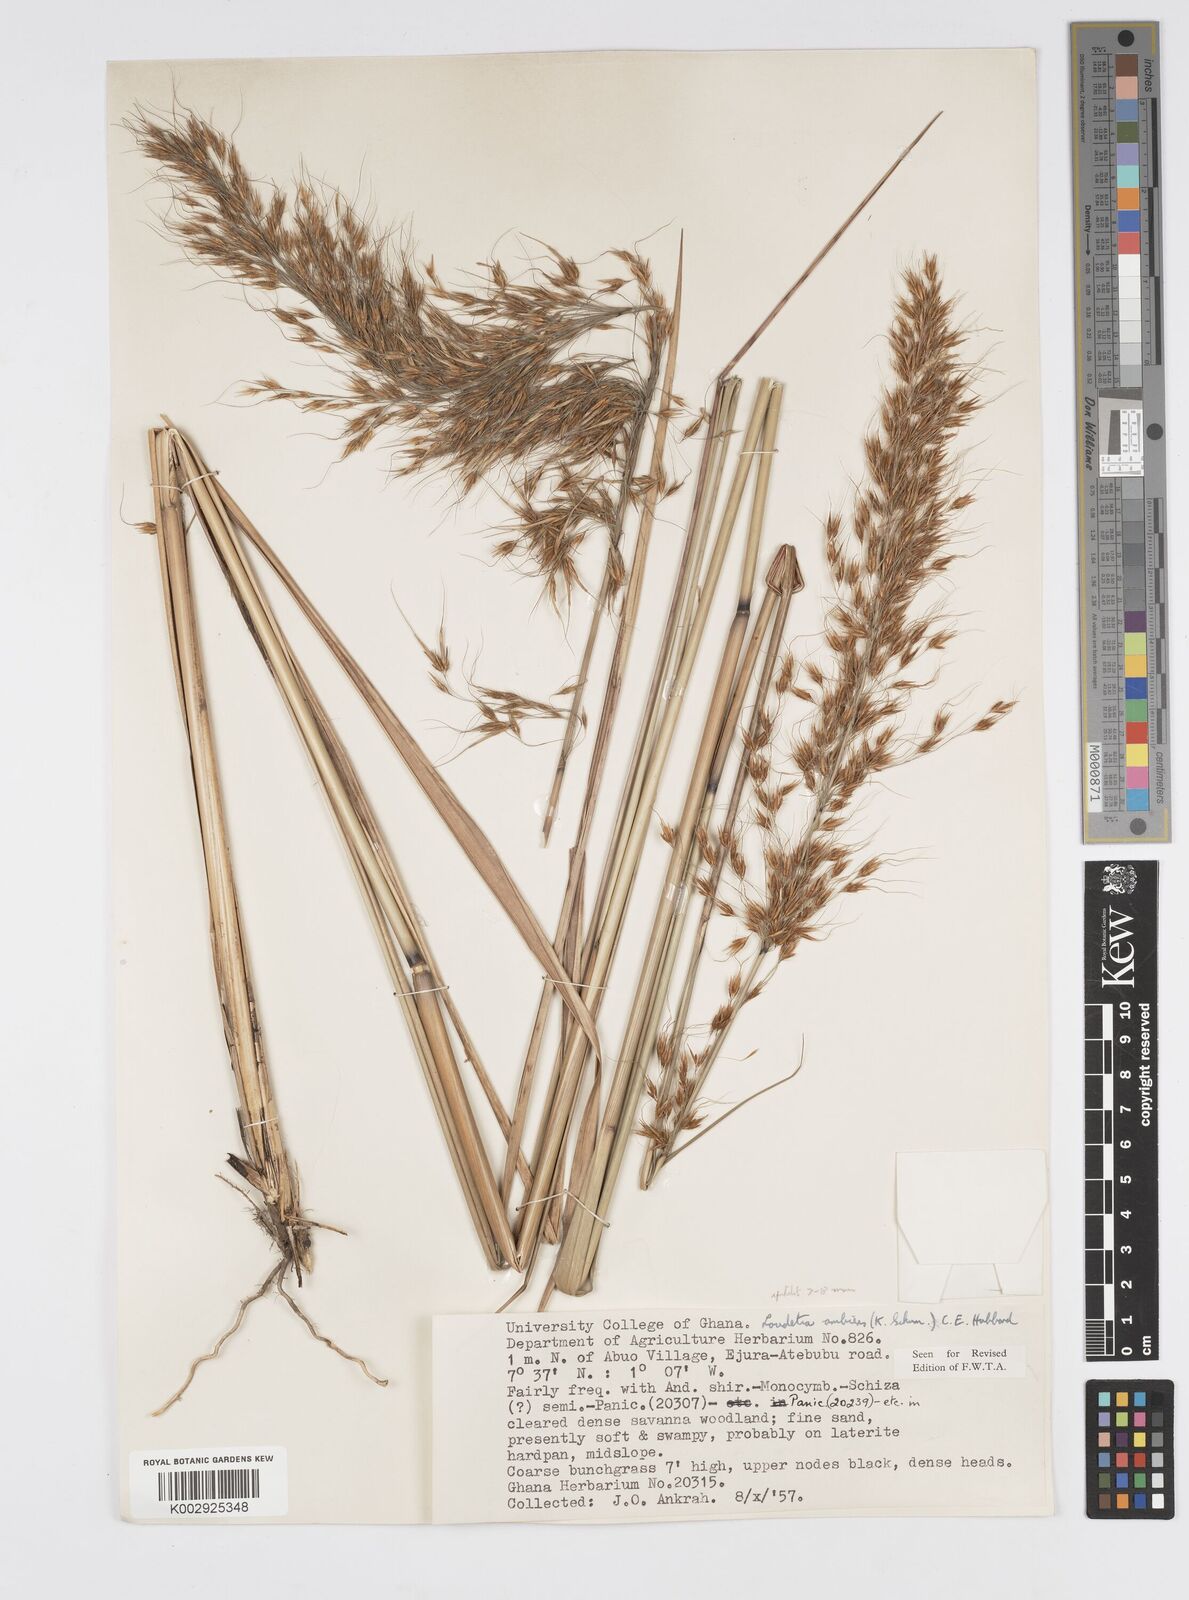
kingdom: Plantae
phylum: Tracheophyta
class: Liliopsida
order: Poales
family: Poaceae
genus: Loudetiopsis
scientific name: Loudetiopsis ambiens
